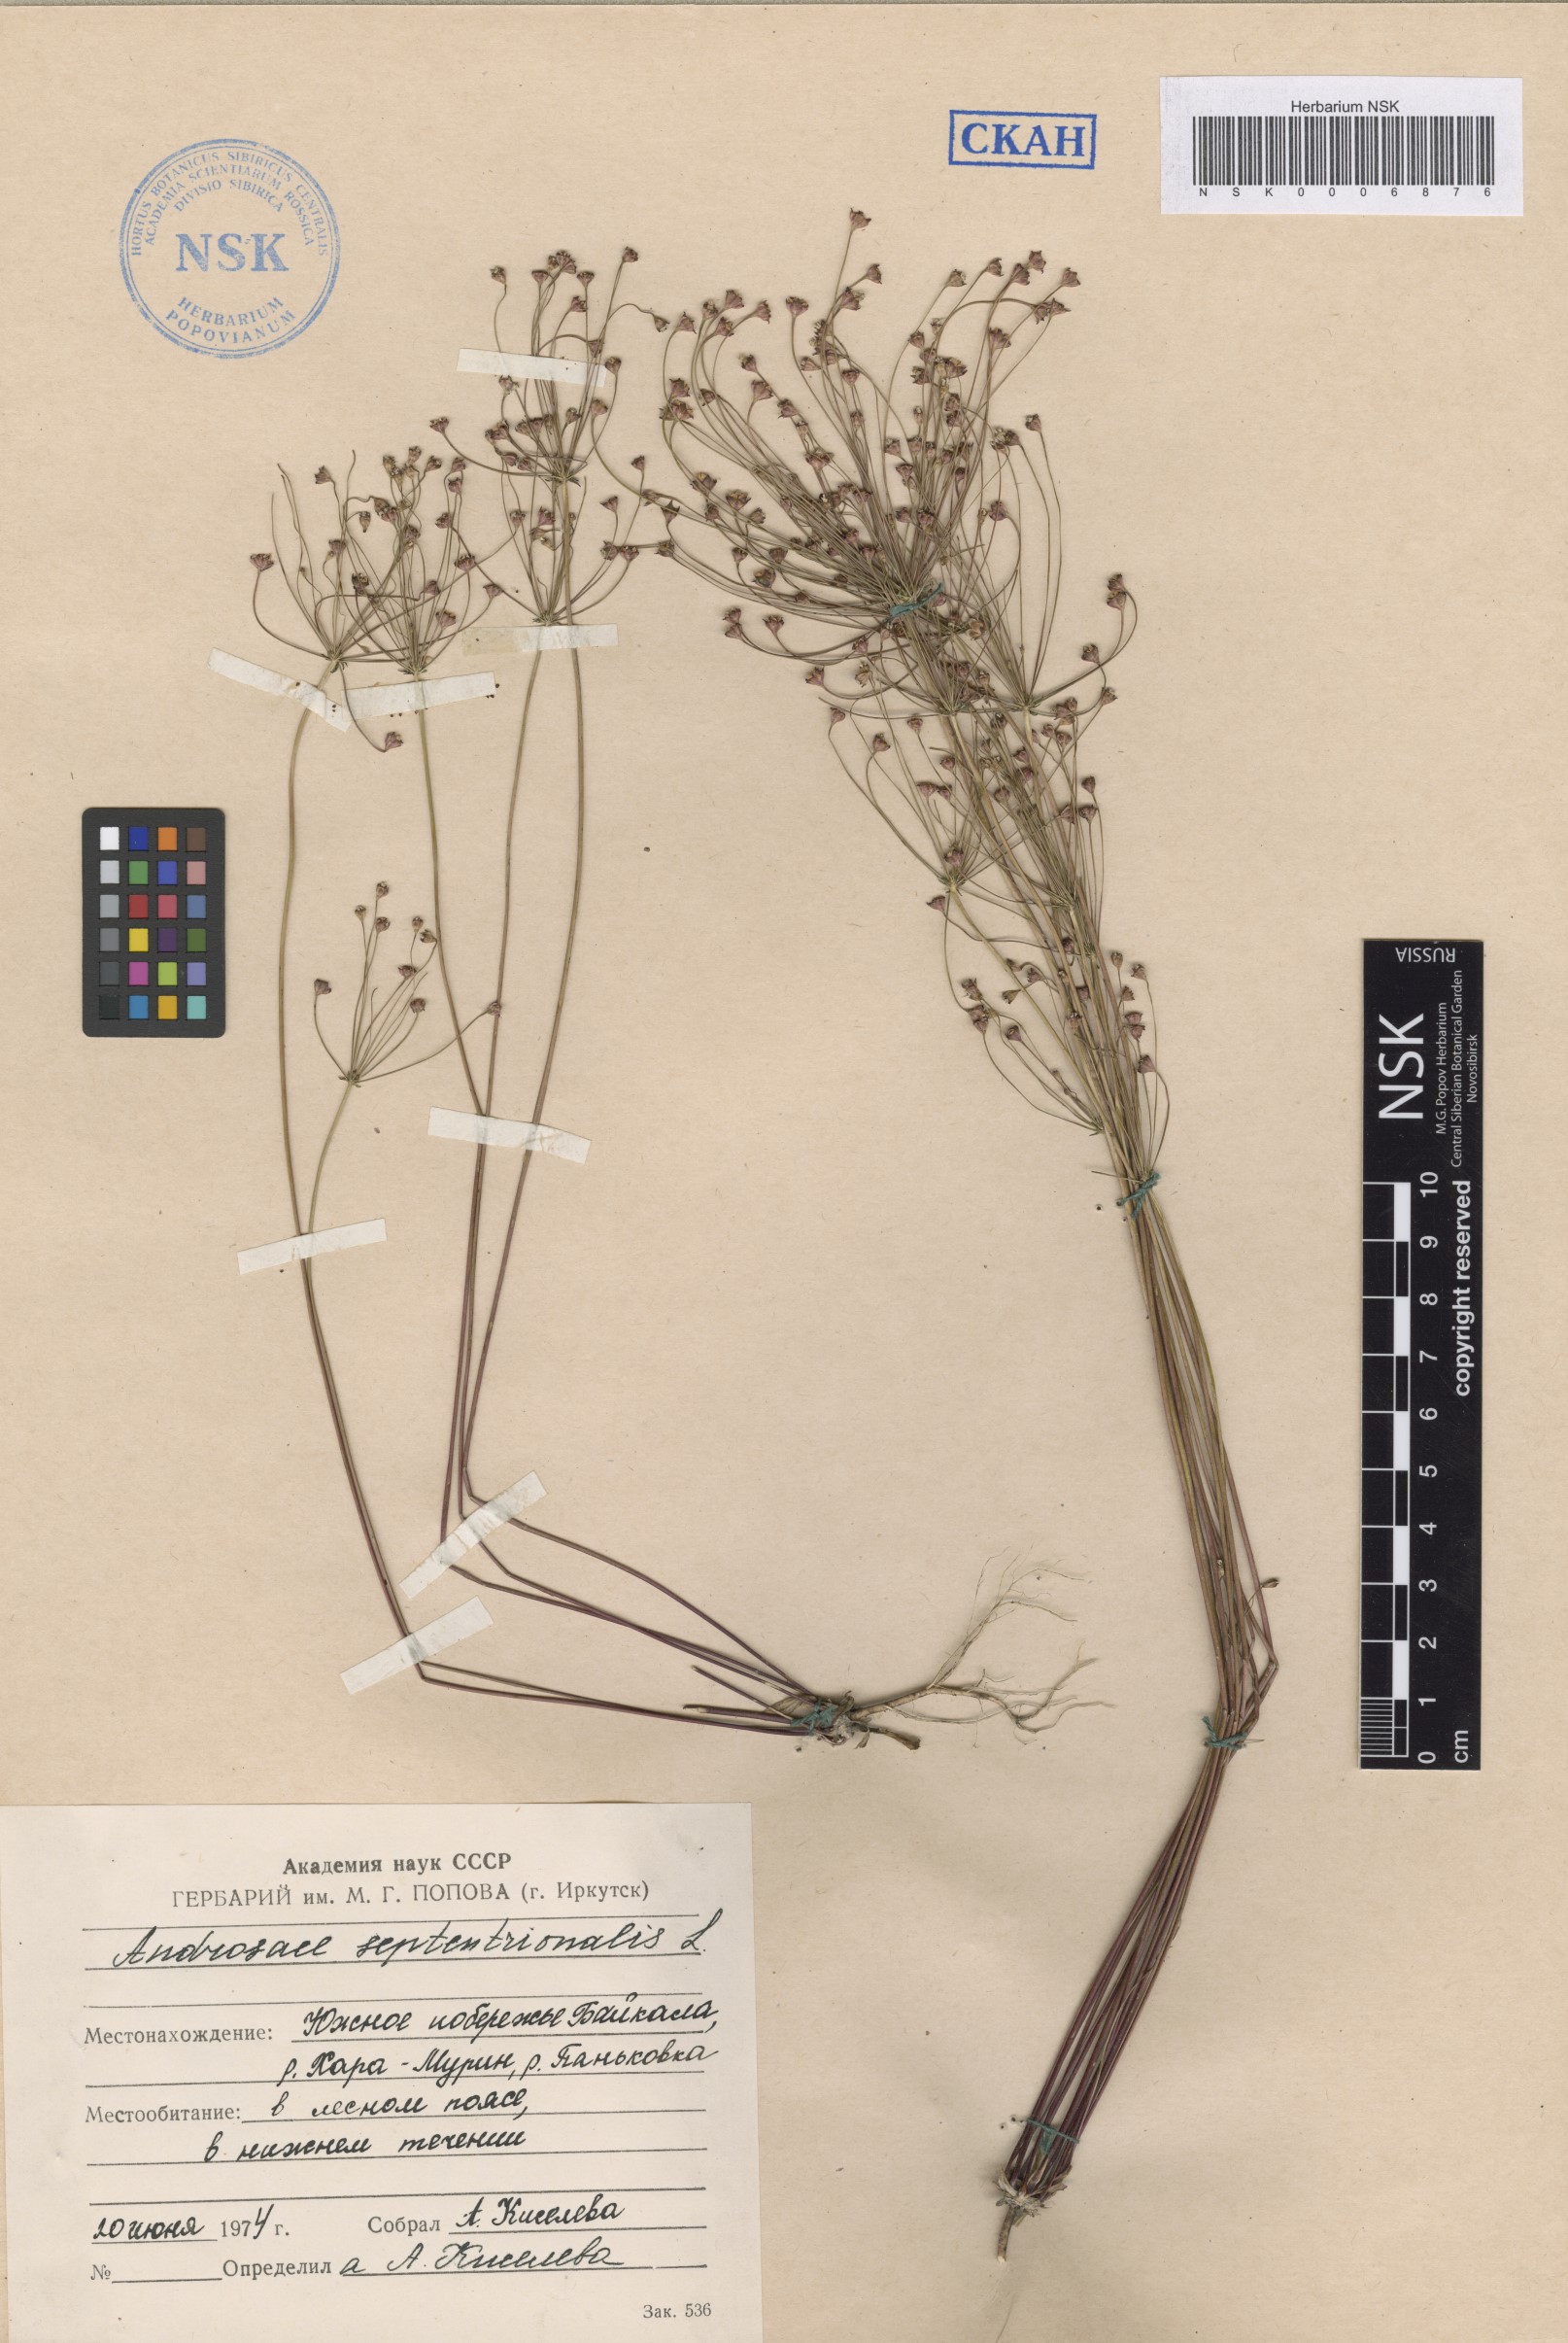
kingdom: Plantae
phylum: Tracheophyta
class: Magnoliopsida
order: Ericales
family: Primulaceae
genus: Androsace
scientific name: Androsace septentrionalis
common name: Hairy northern fairy-candelabra
